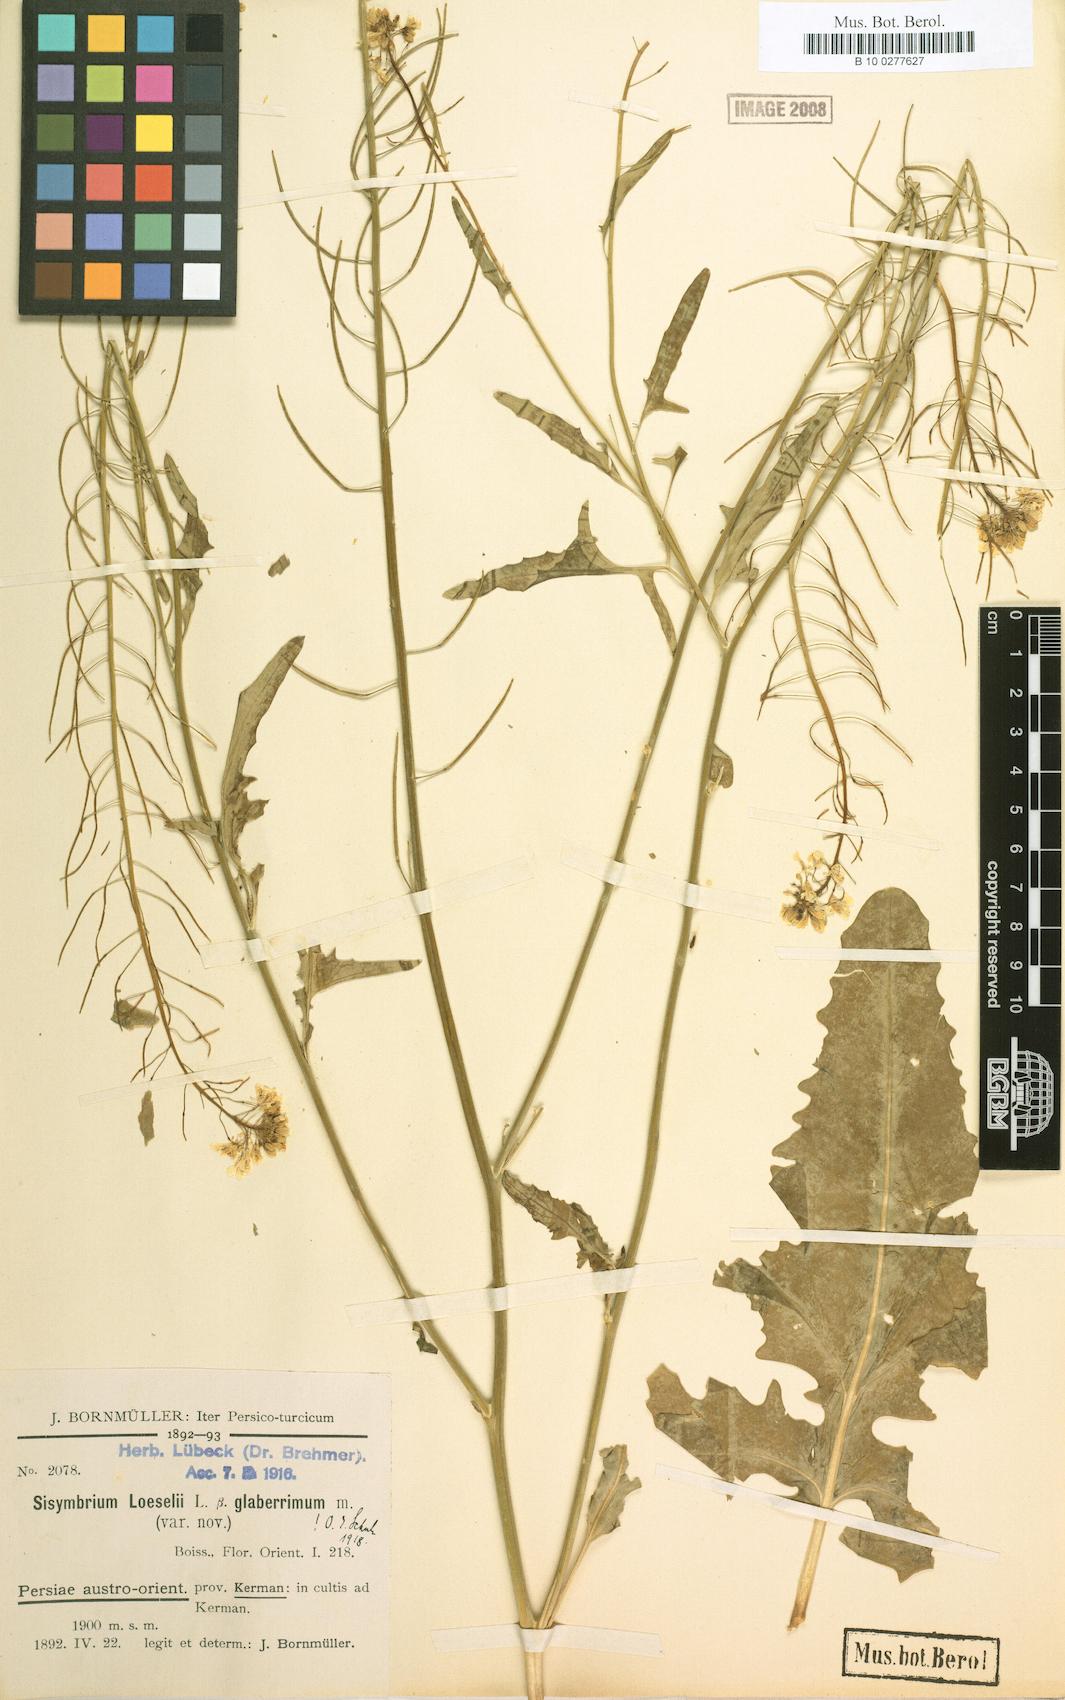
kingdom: Plantae
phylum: Tracheophyta
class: Magnoliopsida
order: Brassicales
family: Brassicaceae
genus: Sisymbrium
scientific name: Sisymbrium loeselii
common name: False london-rocket
